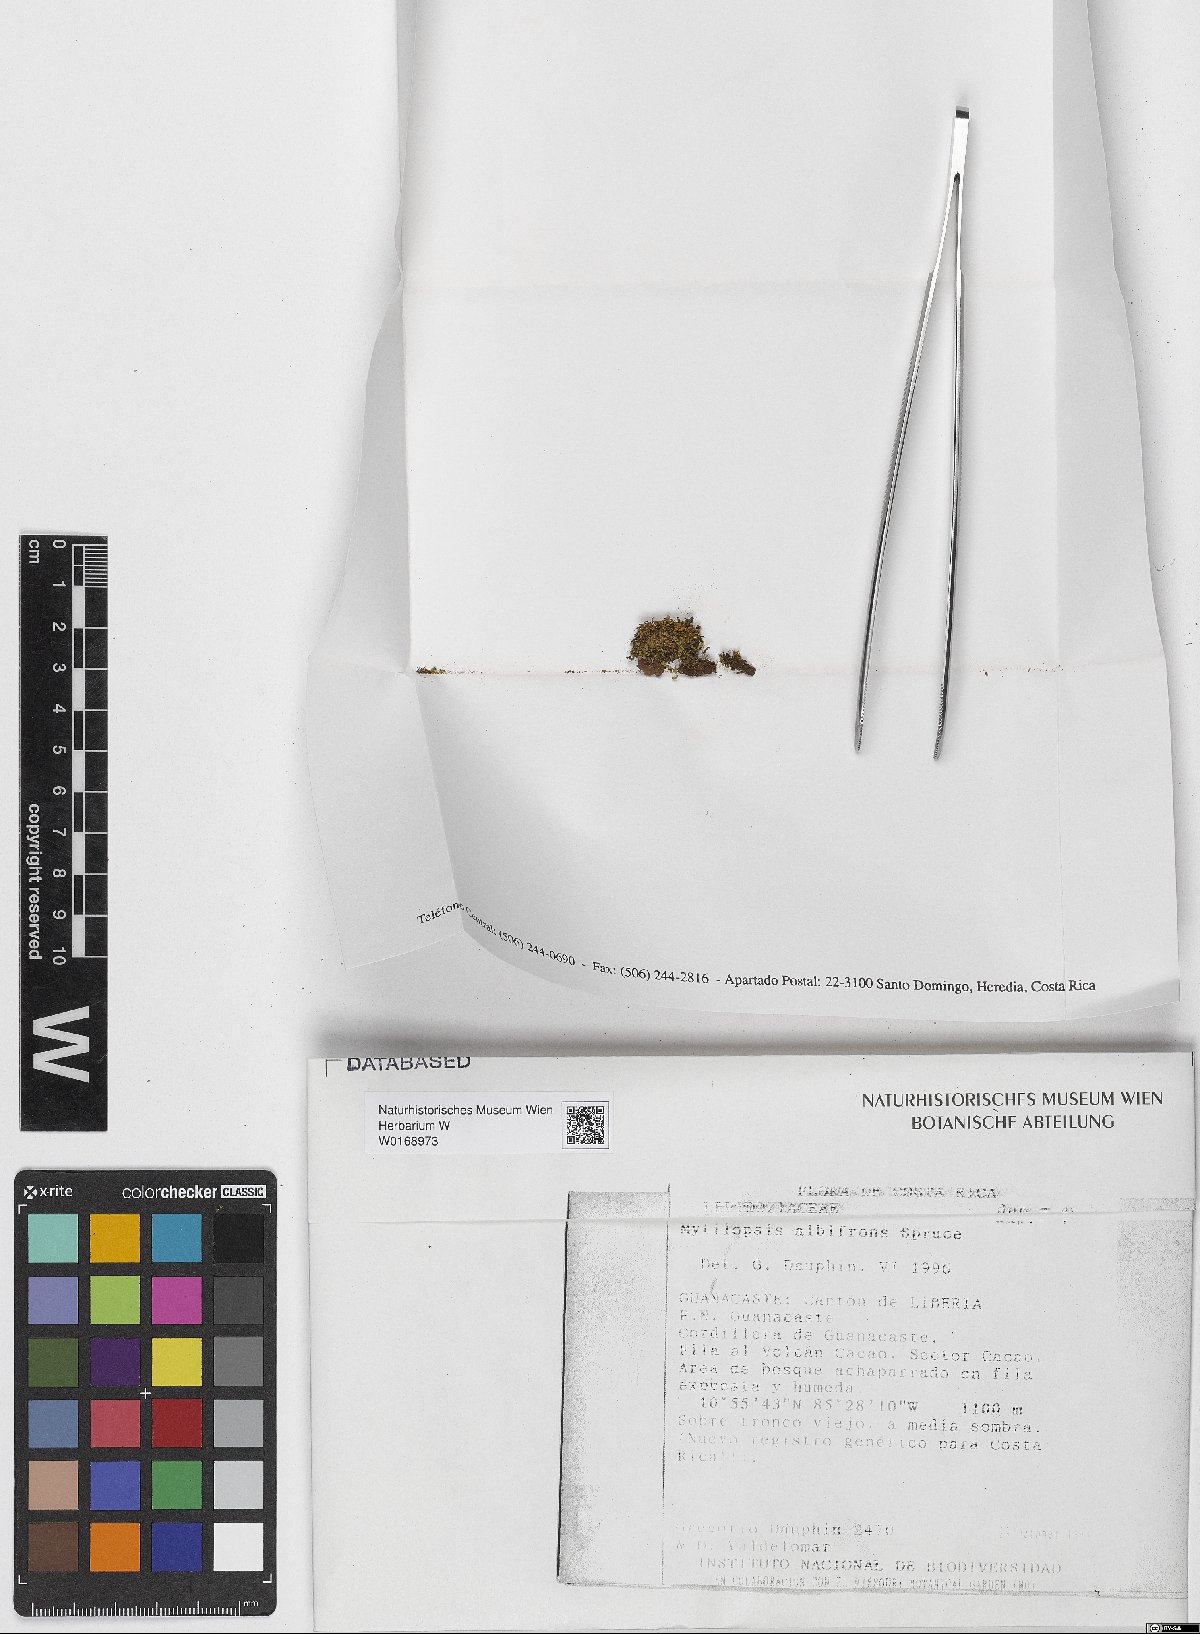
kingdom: Plantae
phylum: Marchantiophyta
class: Jungermanniopsida
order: Jungermanniales
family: Lepidoziaceae
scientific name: Lepidoziaceae
